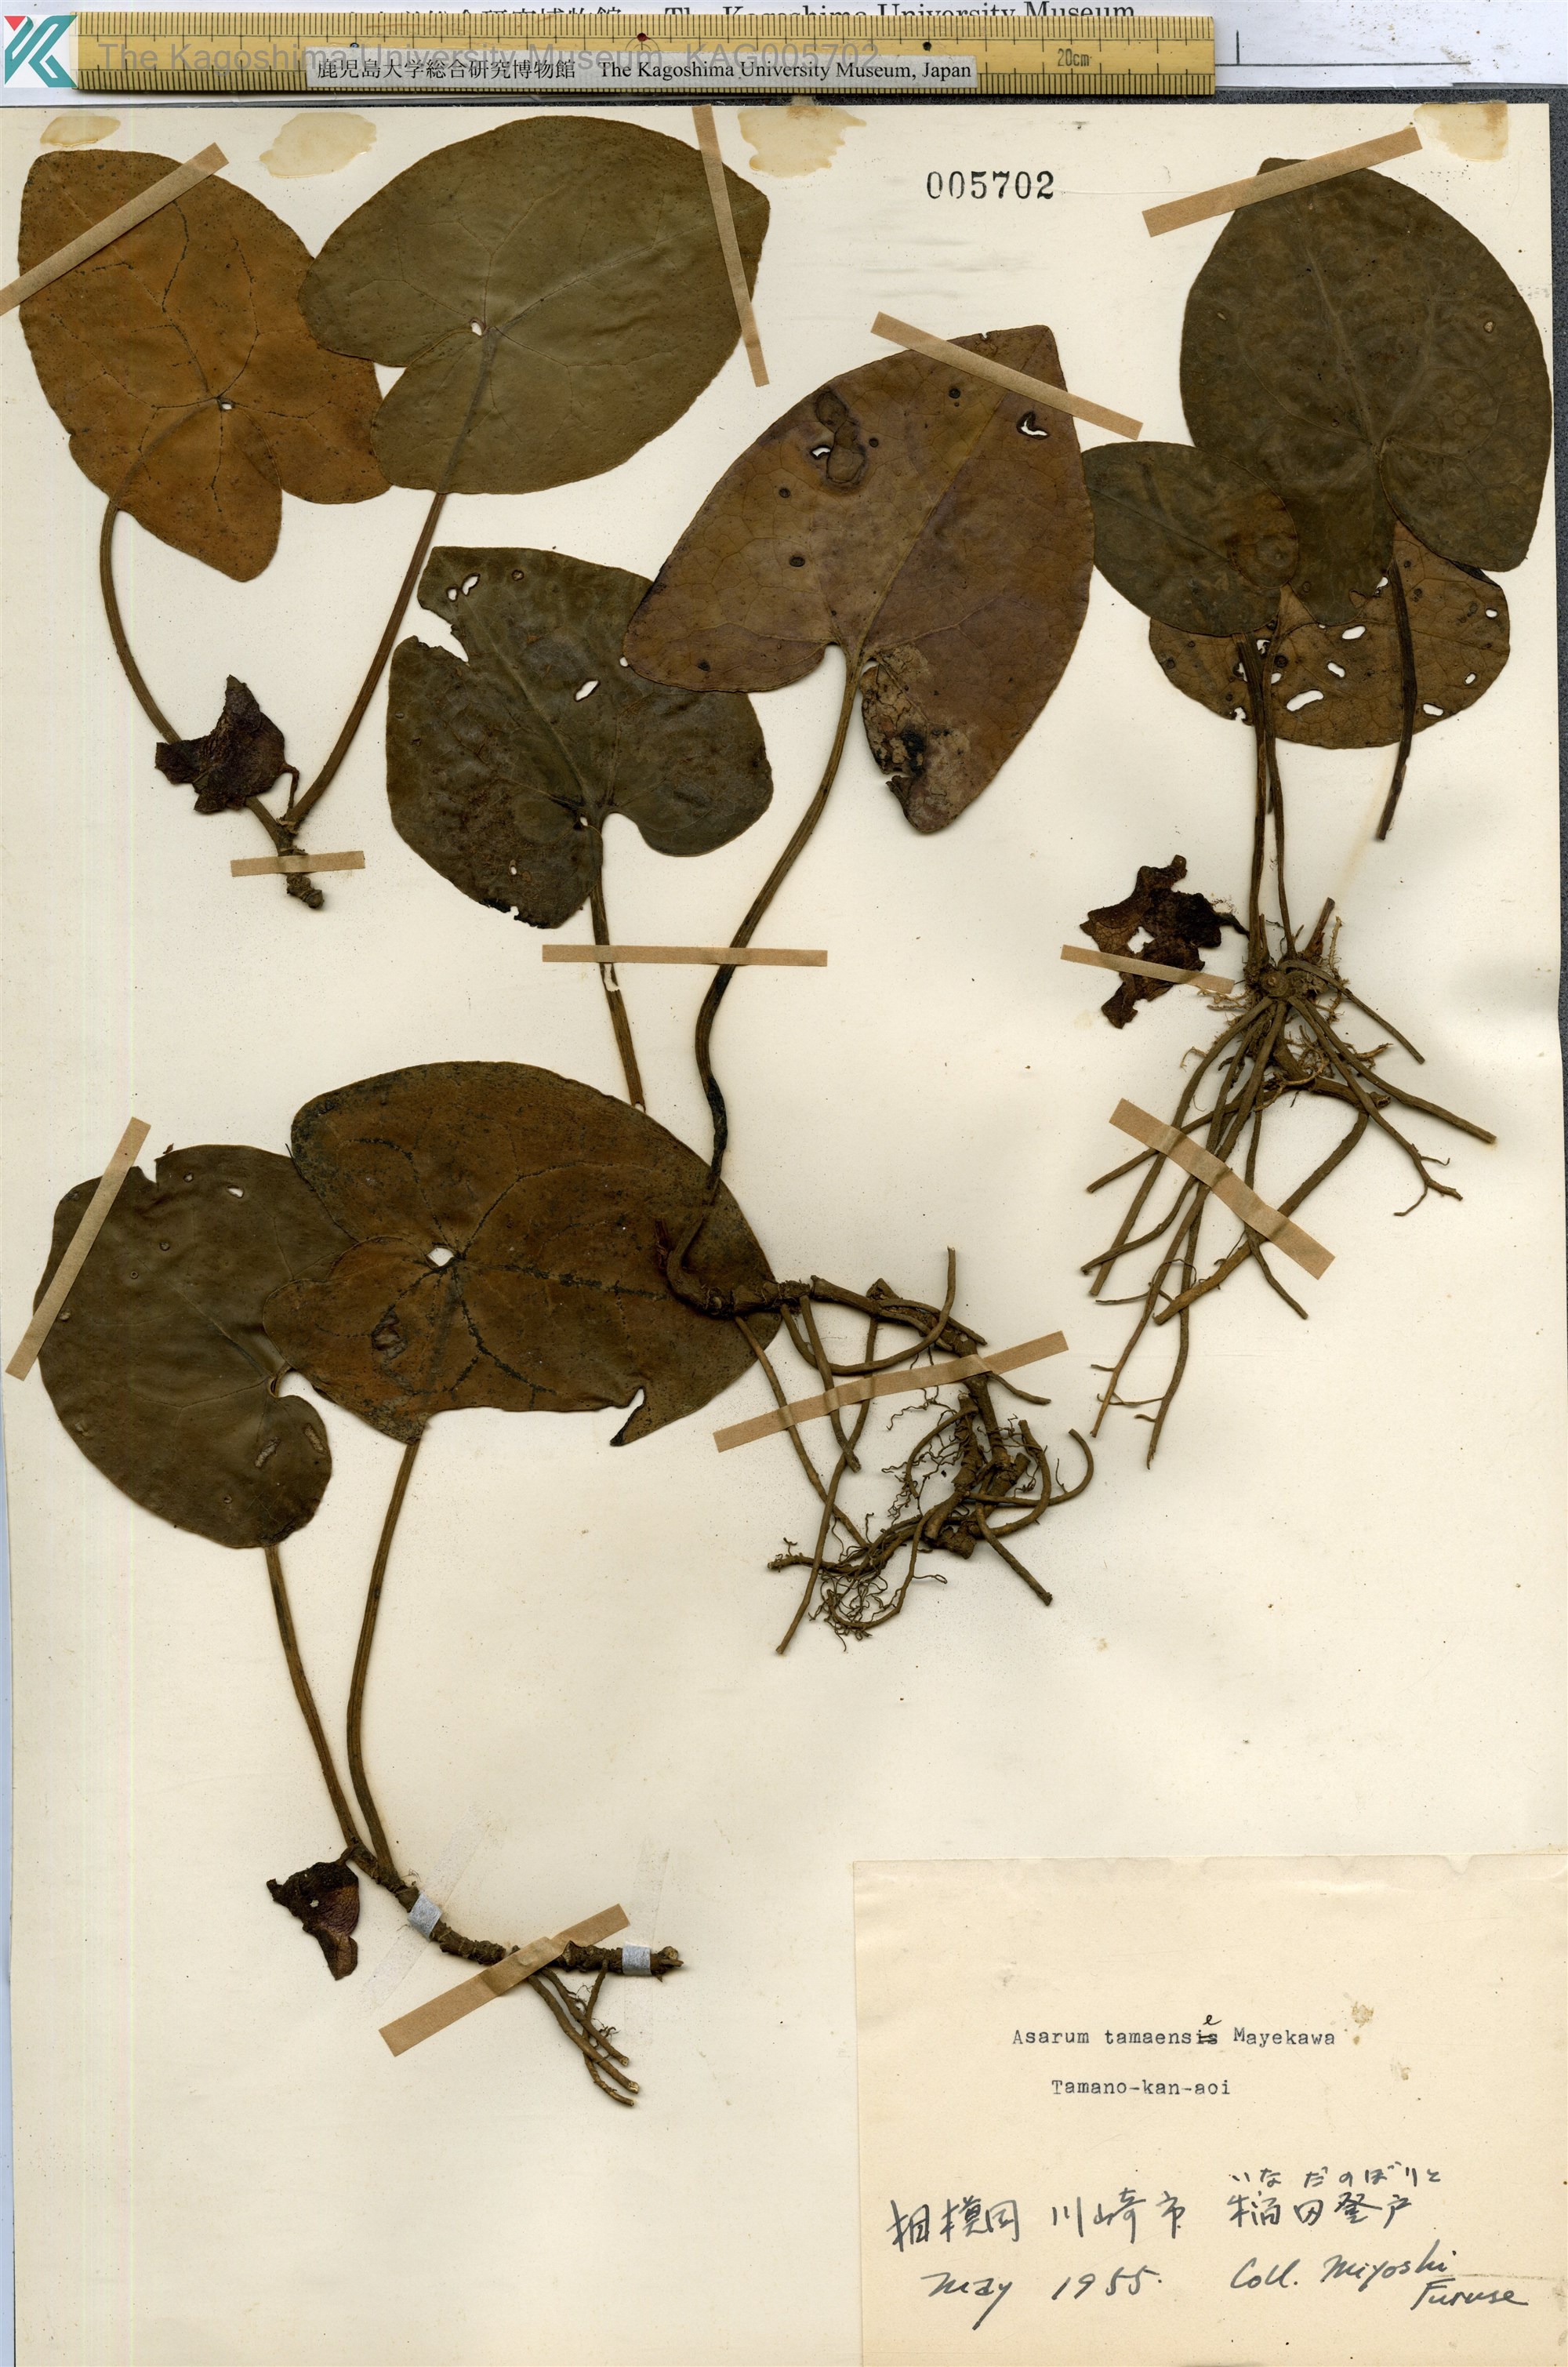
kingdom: Plantae
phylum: Tracheophyta
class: Magnoliopsida
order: Piperales
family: Aristolochiaceae
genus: Asarum
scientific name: Asarum tamaense
